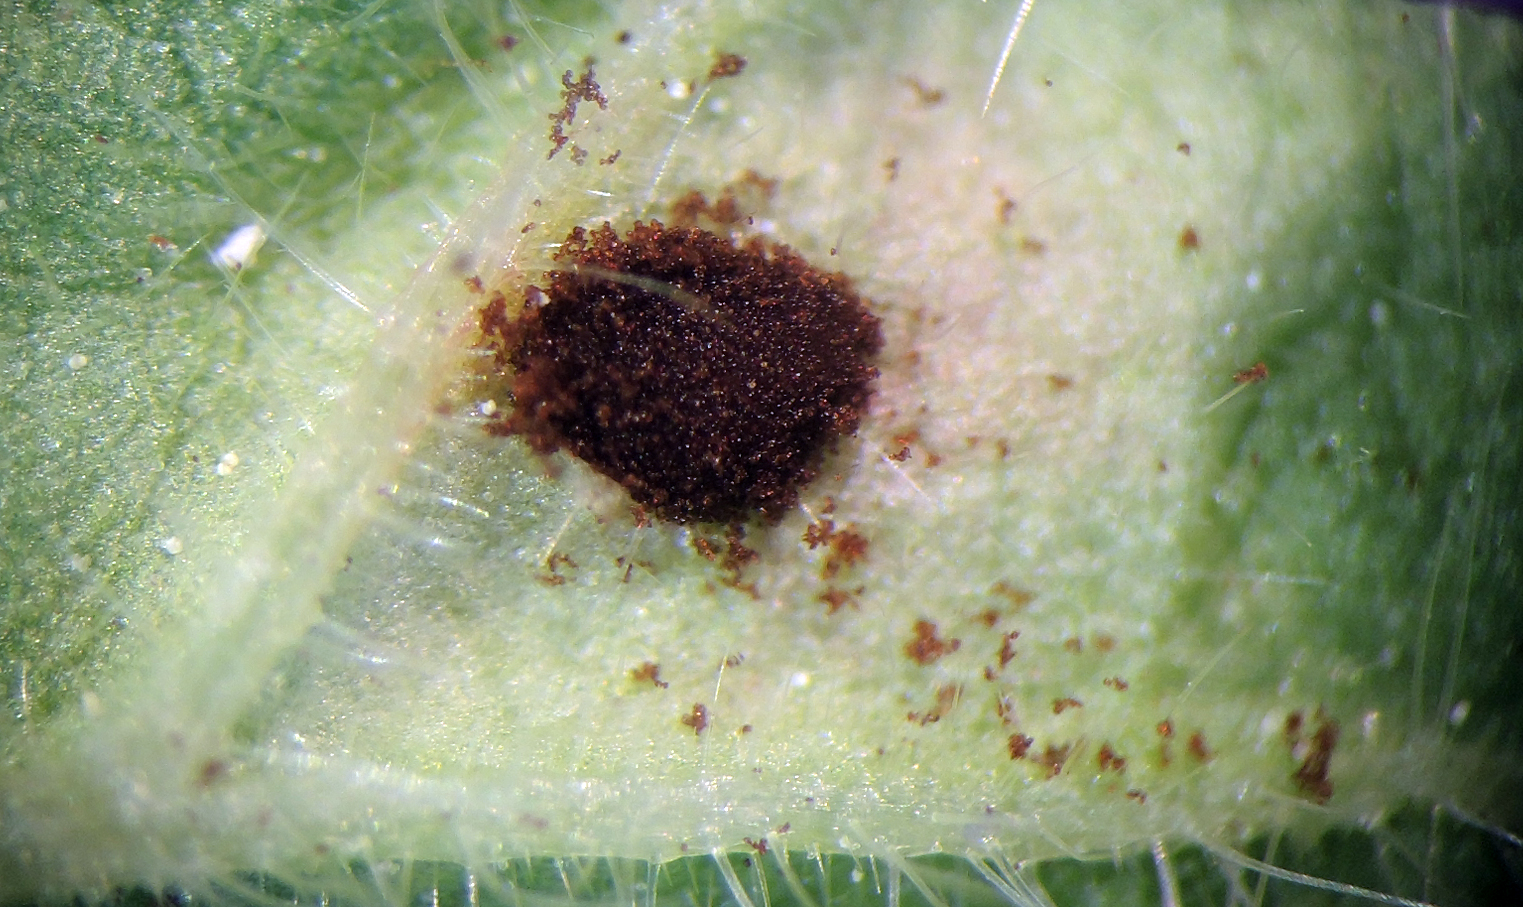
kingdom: Fungi
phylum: Basidiomycota
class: Pucciniomycetes
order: Pucciniales
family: Pucciniaceae
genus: Uromyces
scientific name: Uromyces geranii
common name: Geranium rust
